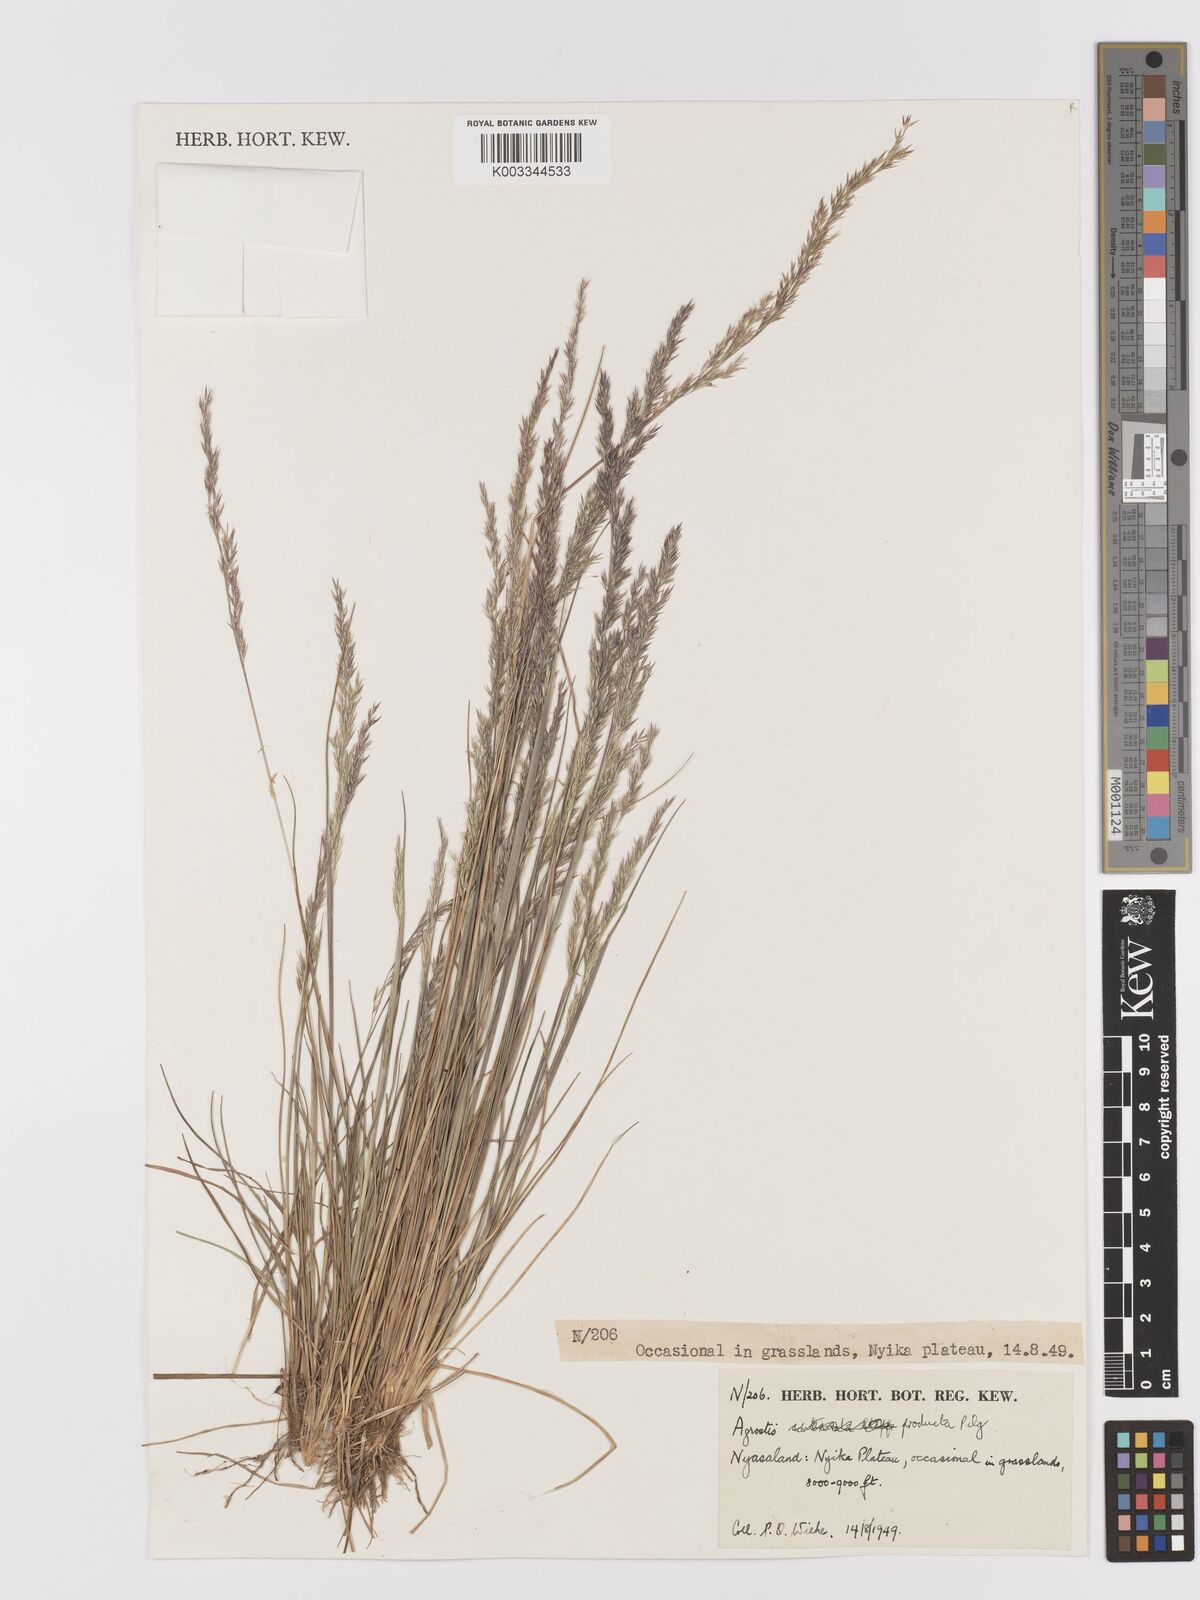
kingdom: Plantae
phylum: Tracheophyta
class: Liliopsida
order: Poales
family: Poaceae
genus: Agrostis
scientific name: Agrostis producta
